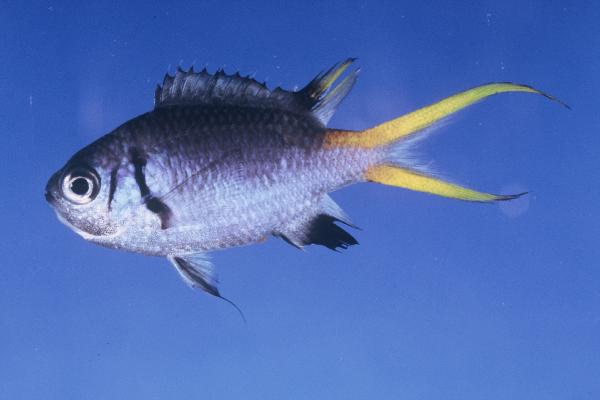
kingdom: Animalia
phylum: Chordata
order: Perciformes
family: Pomacentridae
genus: Chromis
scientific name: Chromis opercularis
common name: Doublebar chromis
